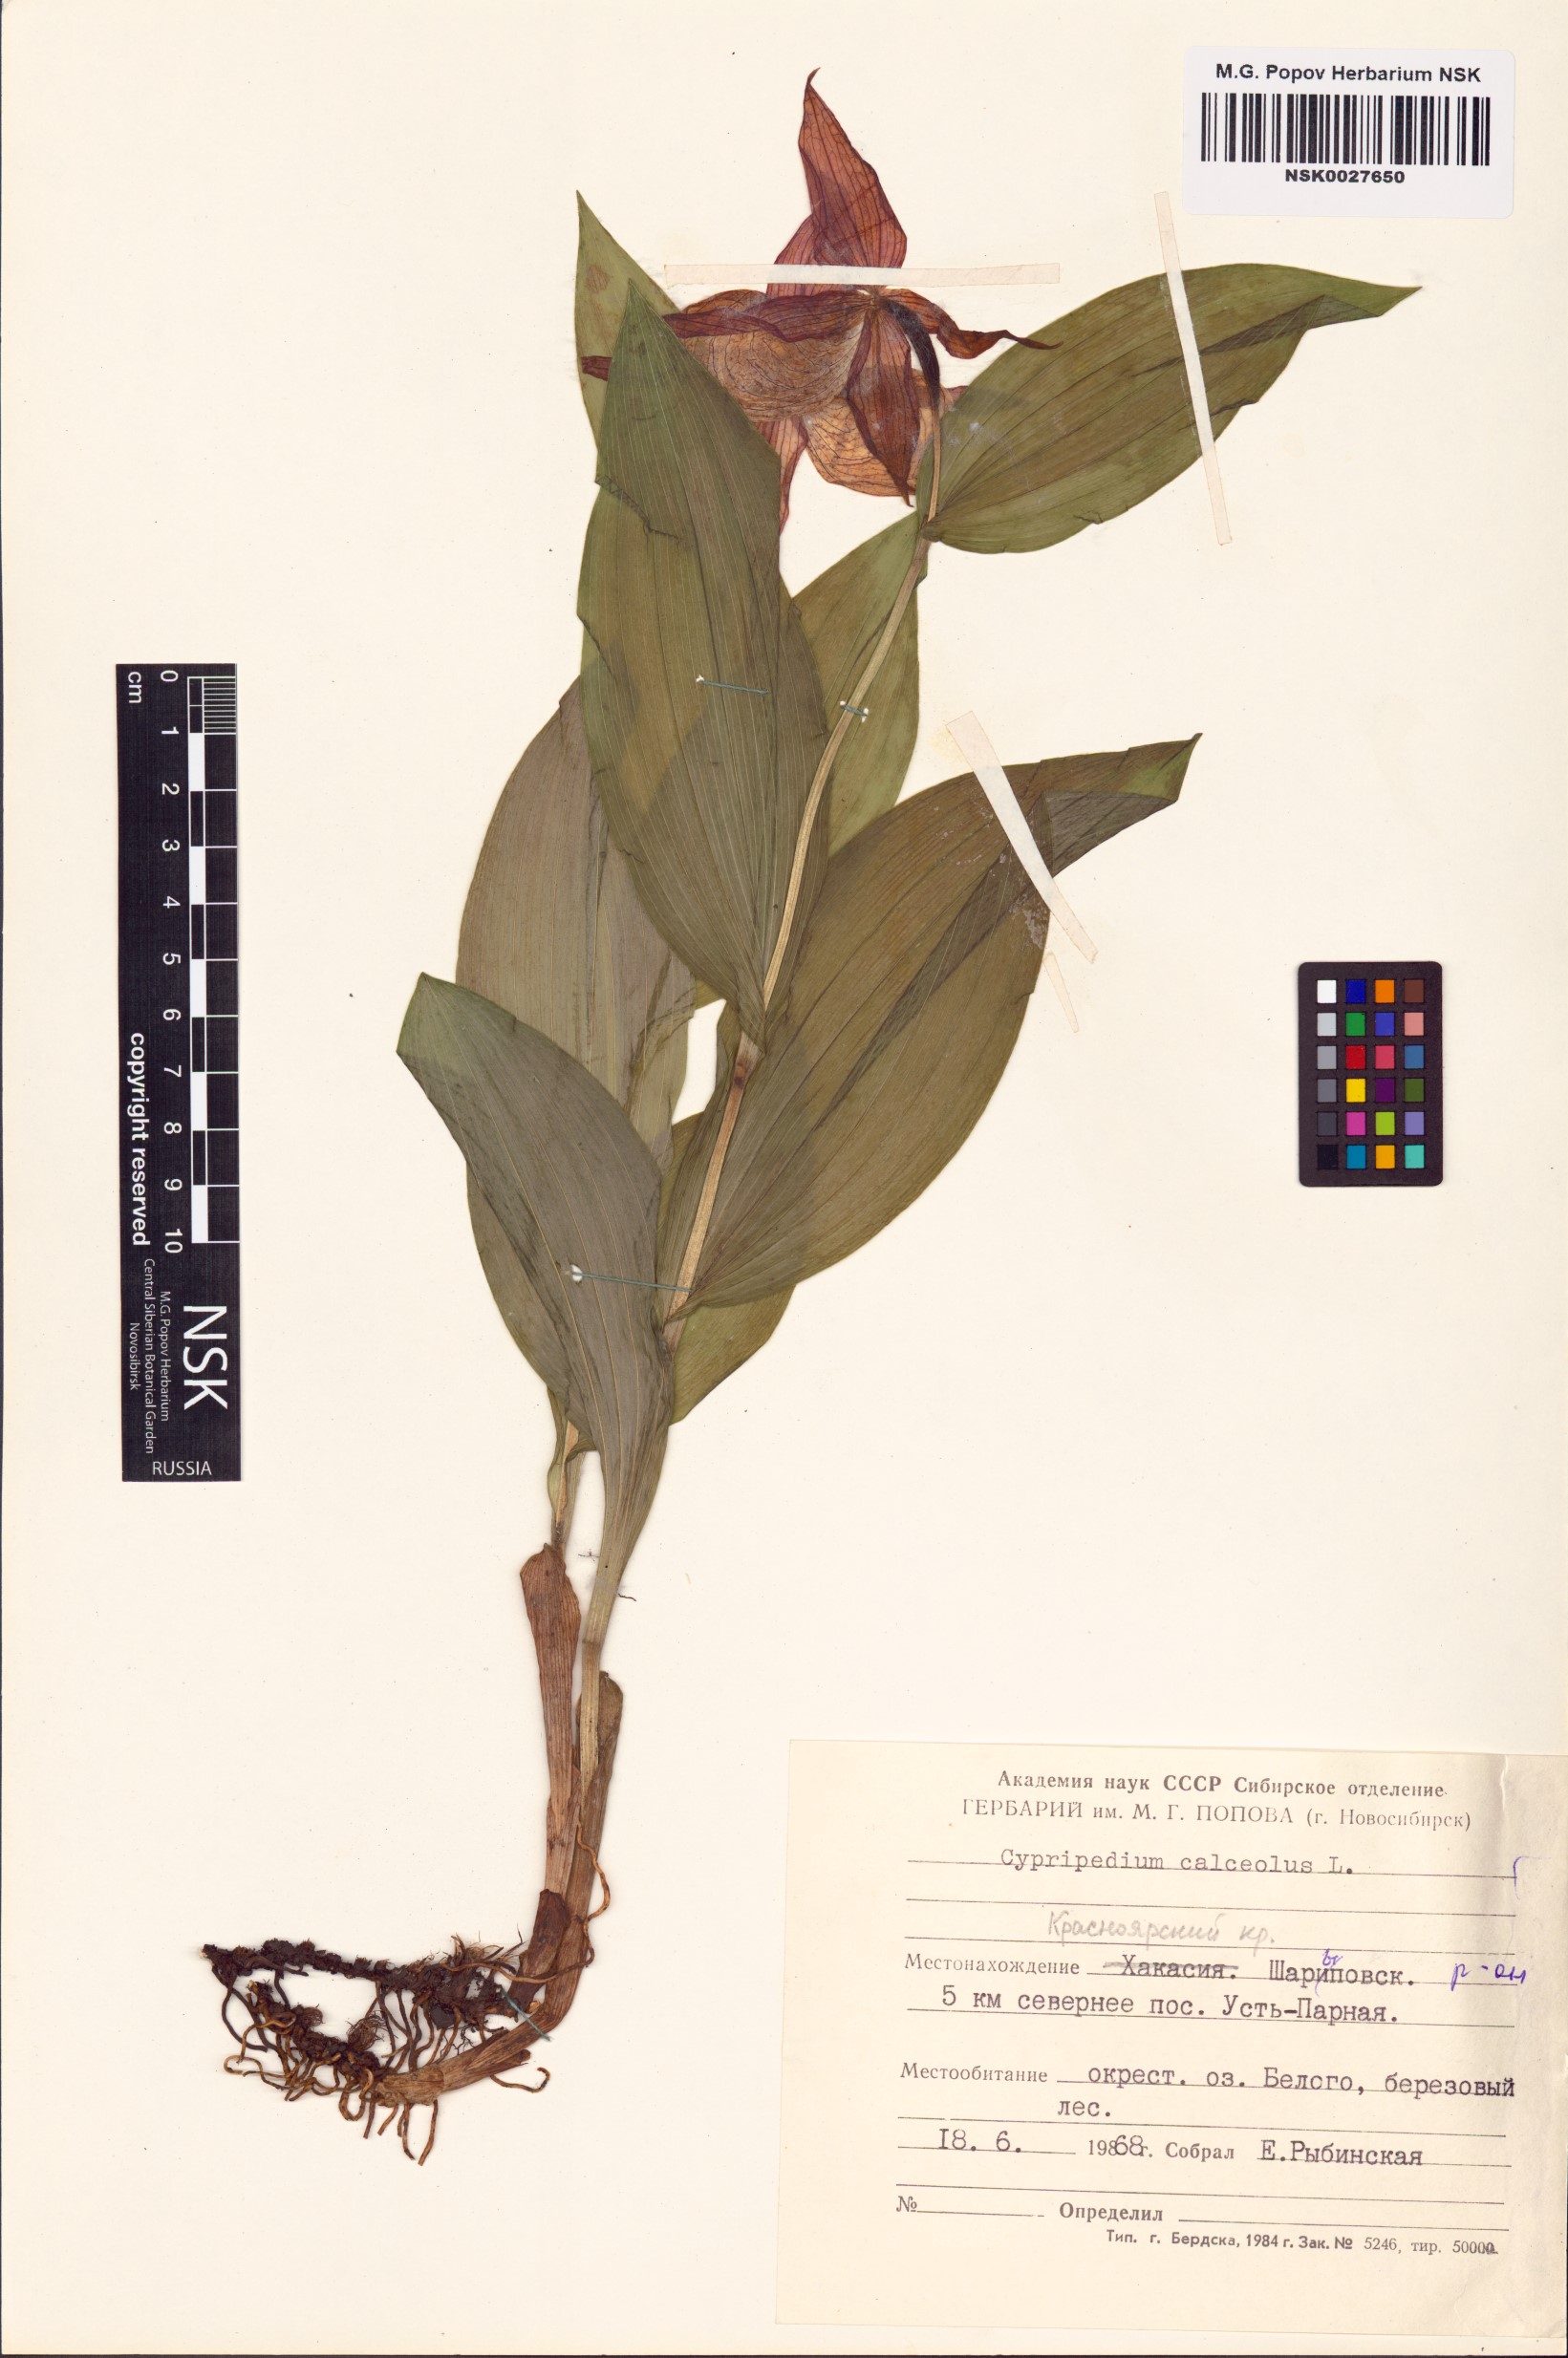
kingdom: Plantae
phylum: Tracheophyta
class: Liliopsida
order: Asparagales
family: Orchidaceae
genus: Cypripedium
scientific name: Cypripedium calceolus
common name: Lady's-slipper
